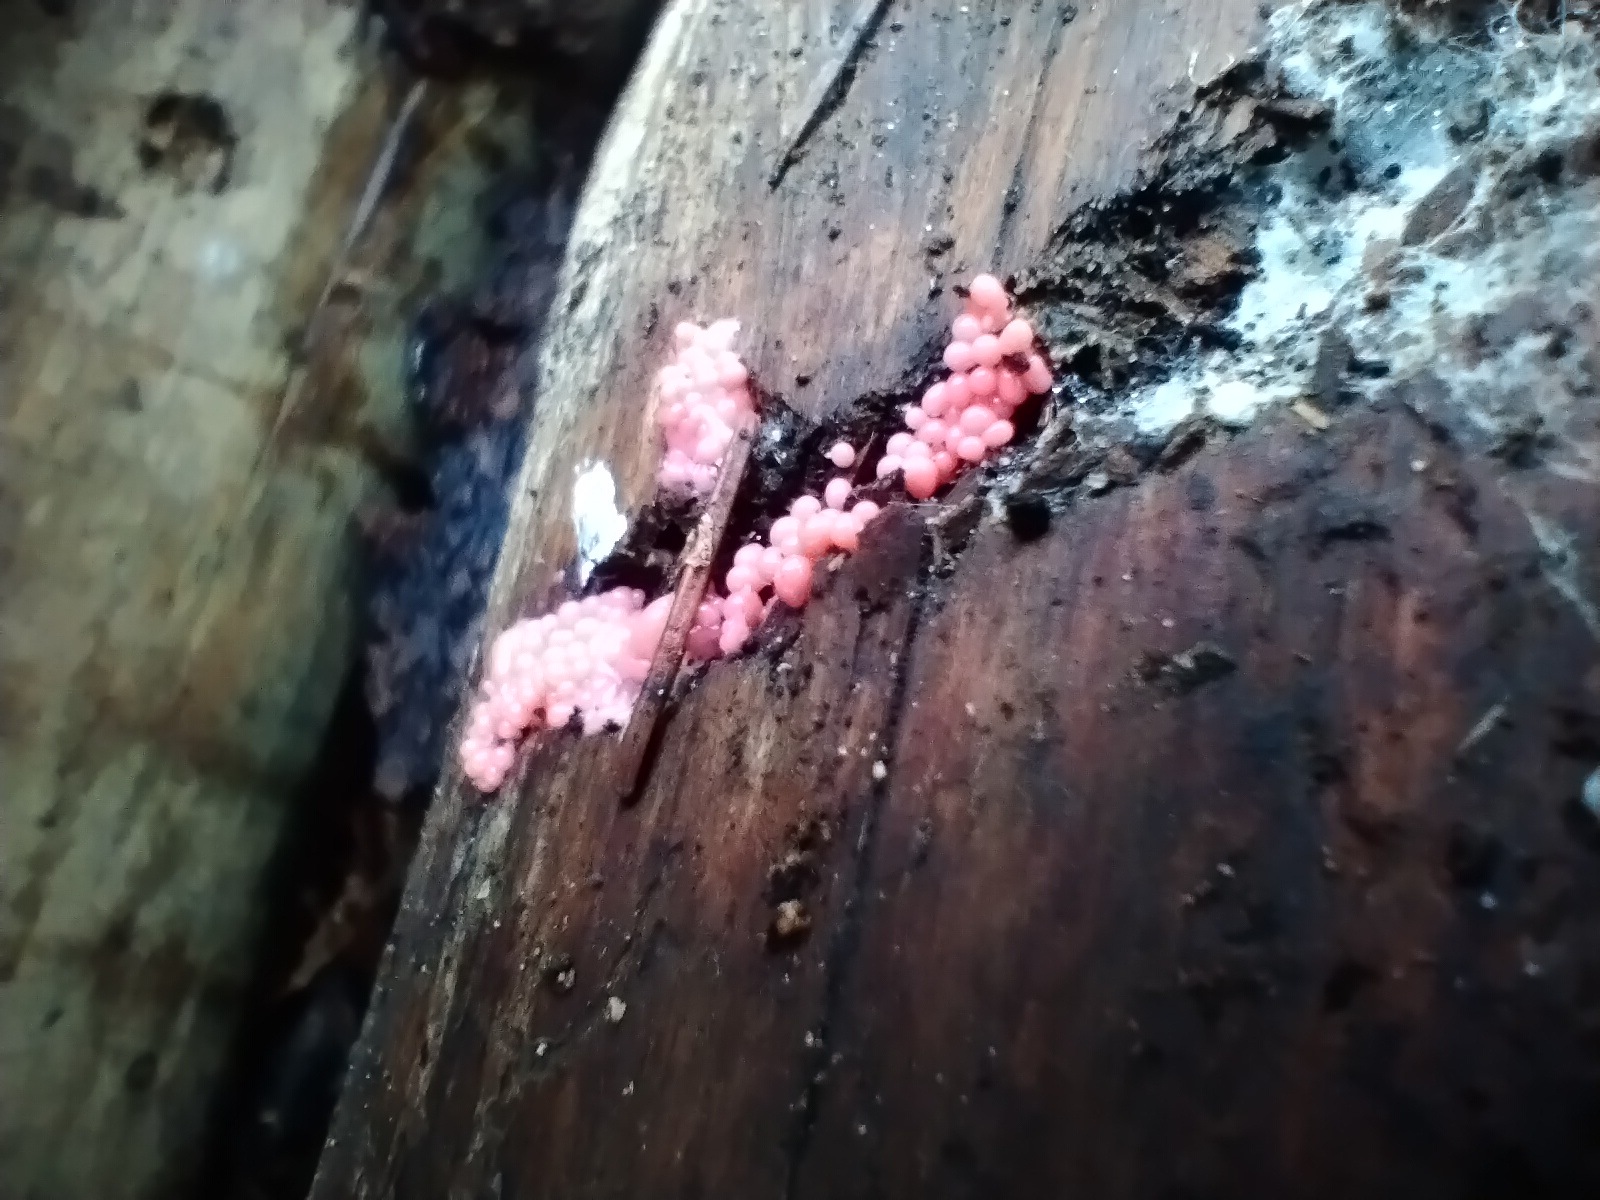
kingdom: Protozoa
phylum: Mycetozoa
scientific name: Mycetozoa
